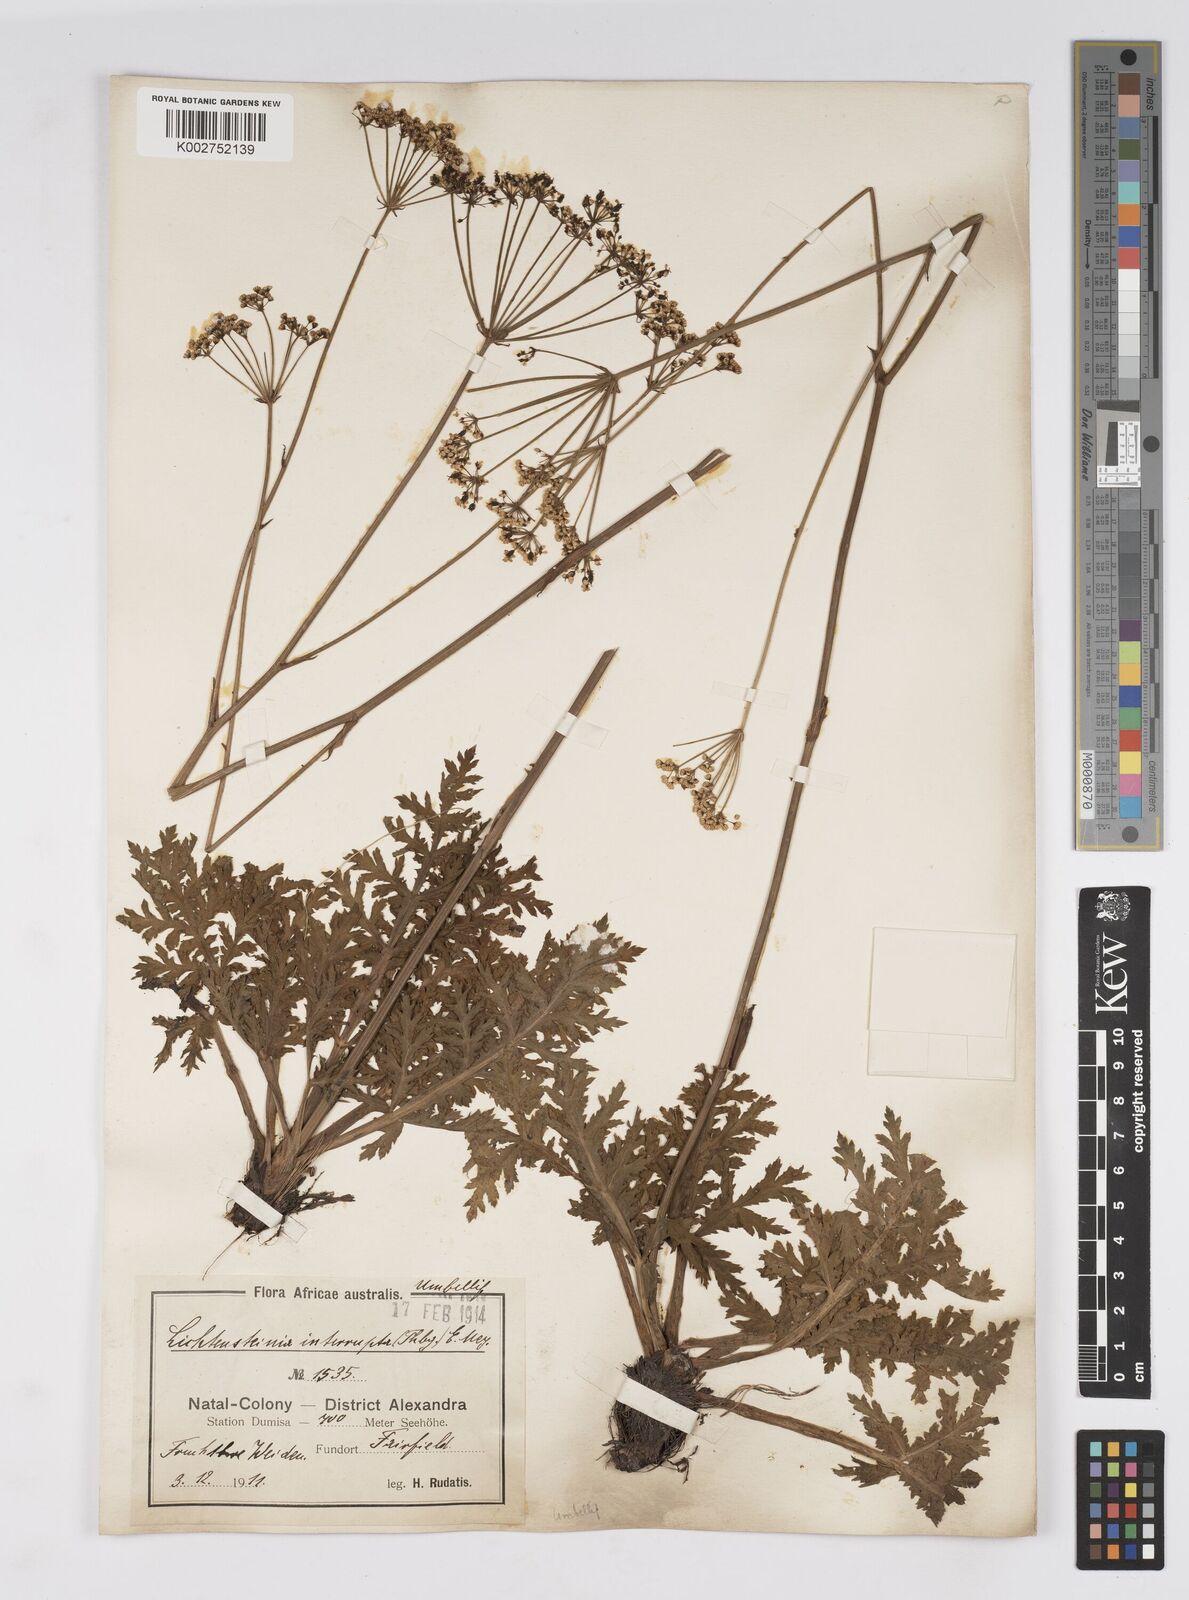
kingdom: Plantae
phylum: Tracheophyta
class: Magnoliopsida
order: Apiales
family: Apiaceae
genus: Lichtensteinia
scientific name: Lichtensteinia interrupta
